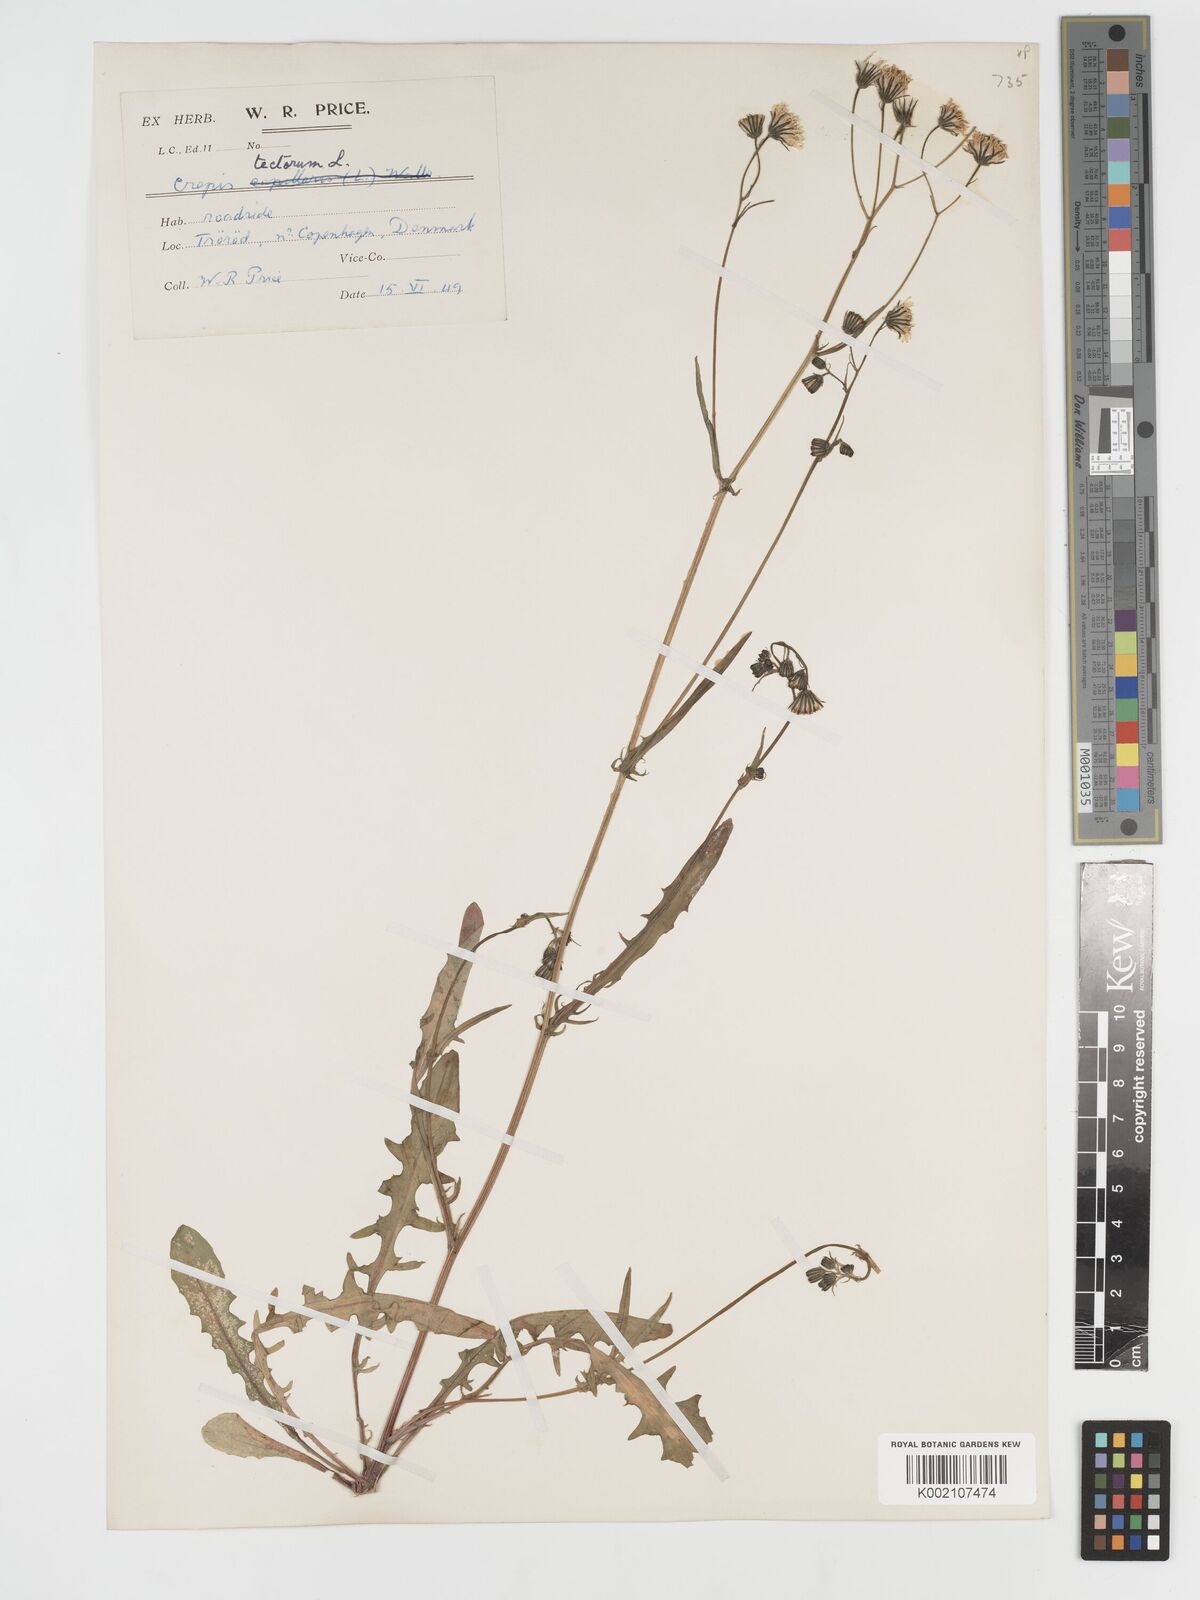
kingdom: Plantae
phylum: Tracheophyta
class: Magnoliopsida
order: Asterales
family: Asteraceae
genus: Crepis
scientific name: Crepis tectorum
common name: Narrow-leaved hawk's-beard
